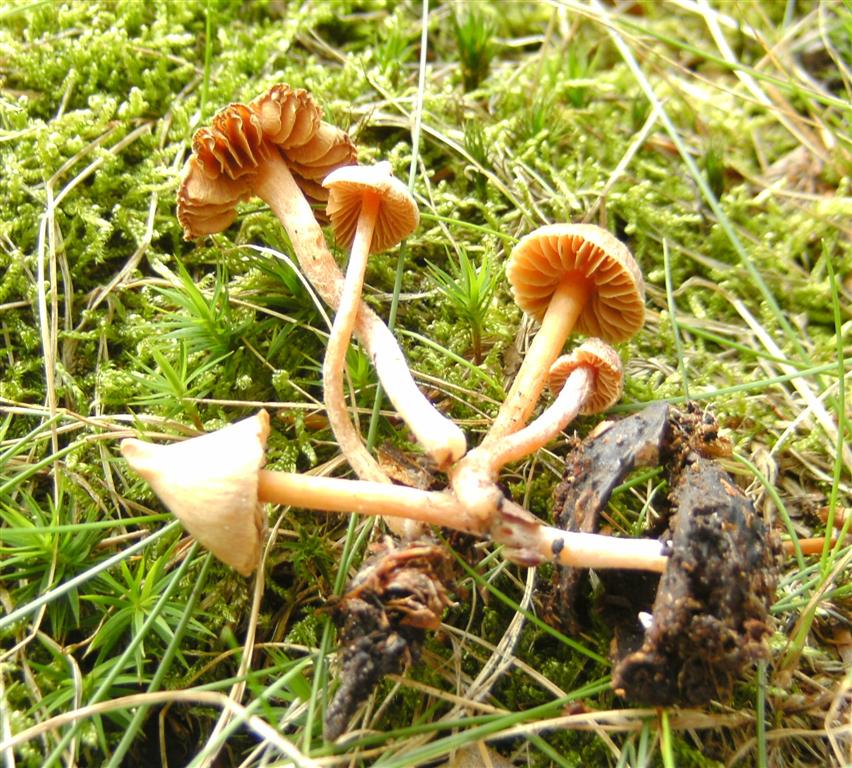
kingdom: Fungi
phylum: Basidiomycota
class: Agaricomycetes
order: Agaricales
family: Cortinariaceae
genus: Cortinarius
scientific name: Cortinarius acutus
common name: spids slørhat
